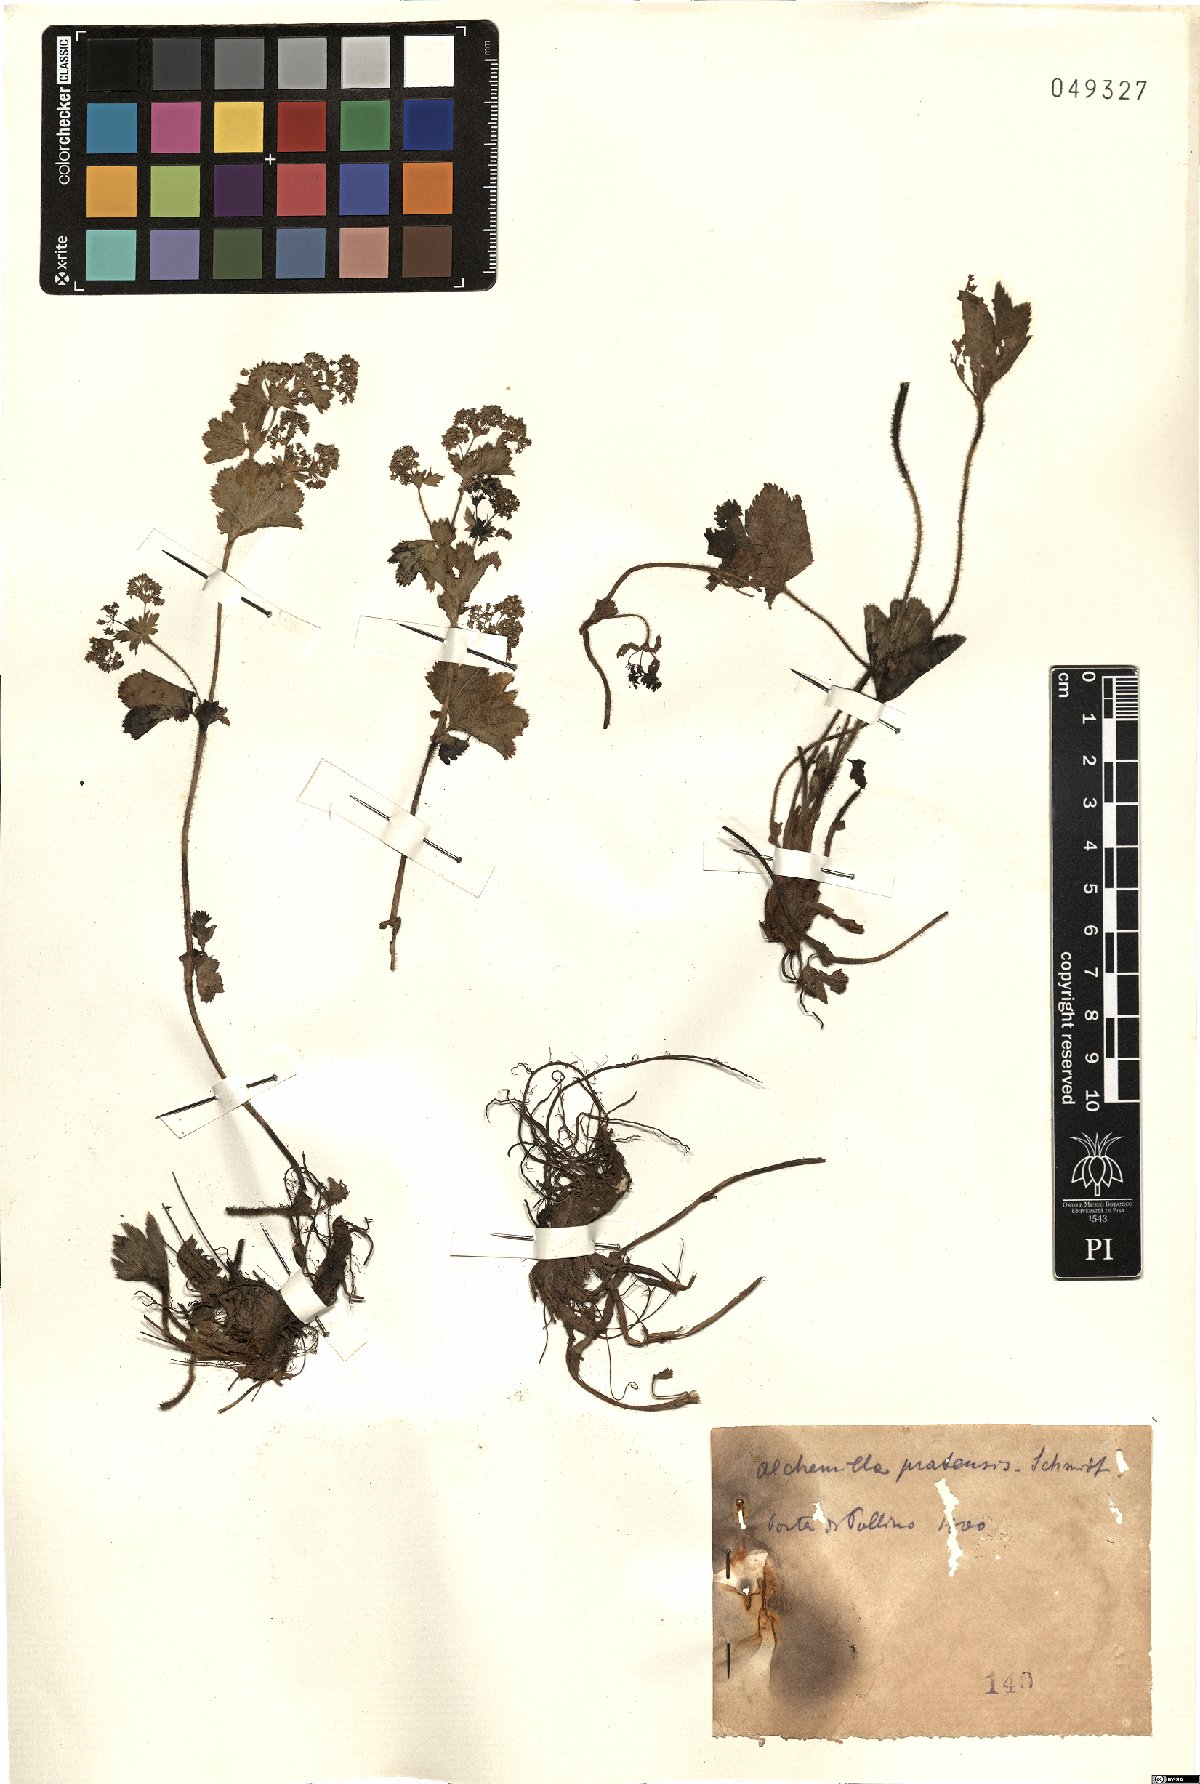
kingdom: Plantae
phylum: Tracheophyta
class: Magnoliopsida
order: Rosales
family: Rosaceae
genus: Alchemilla
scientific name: Alchemilla xanthochlora
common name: Intermediate lady's-mantle
